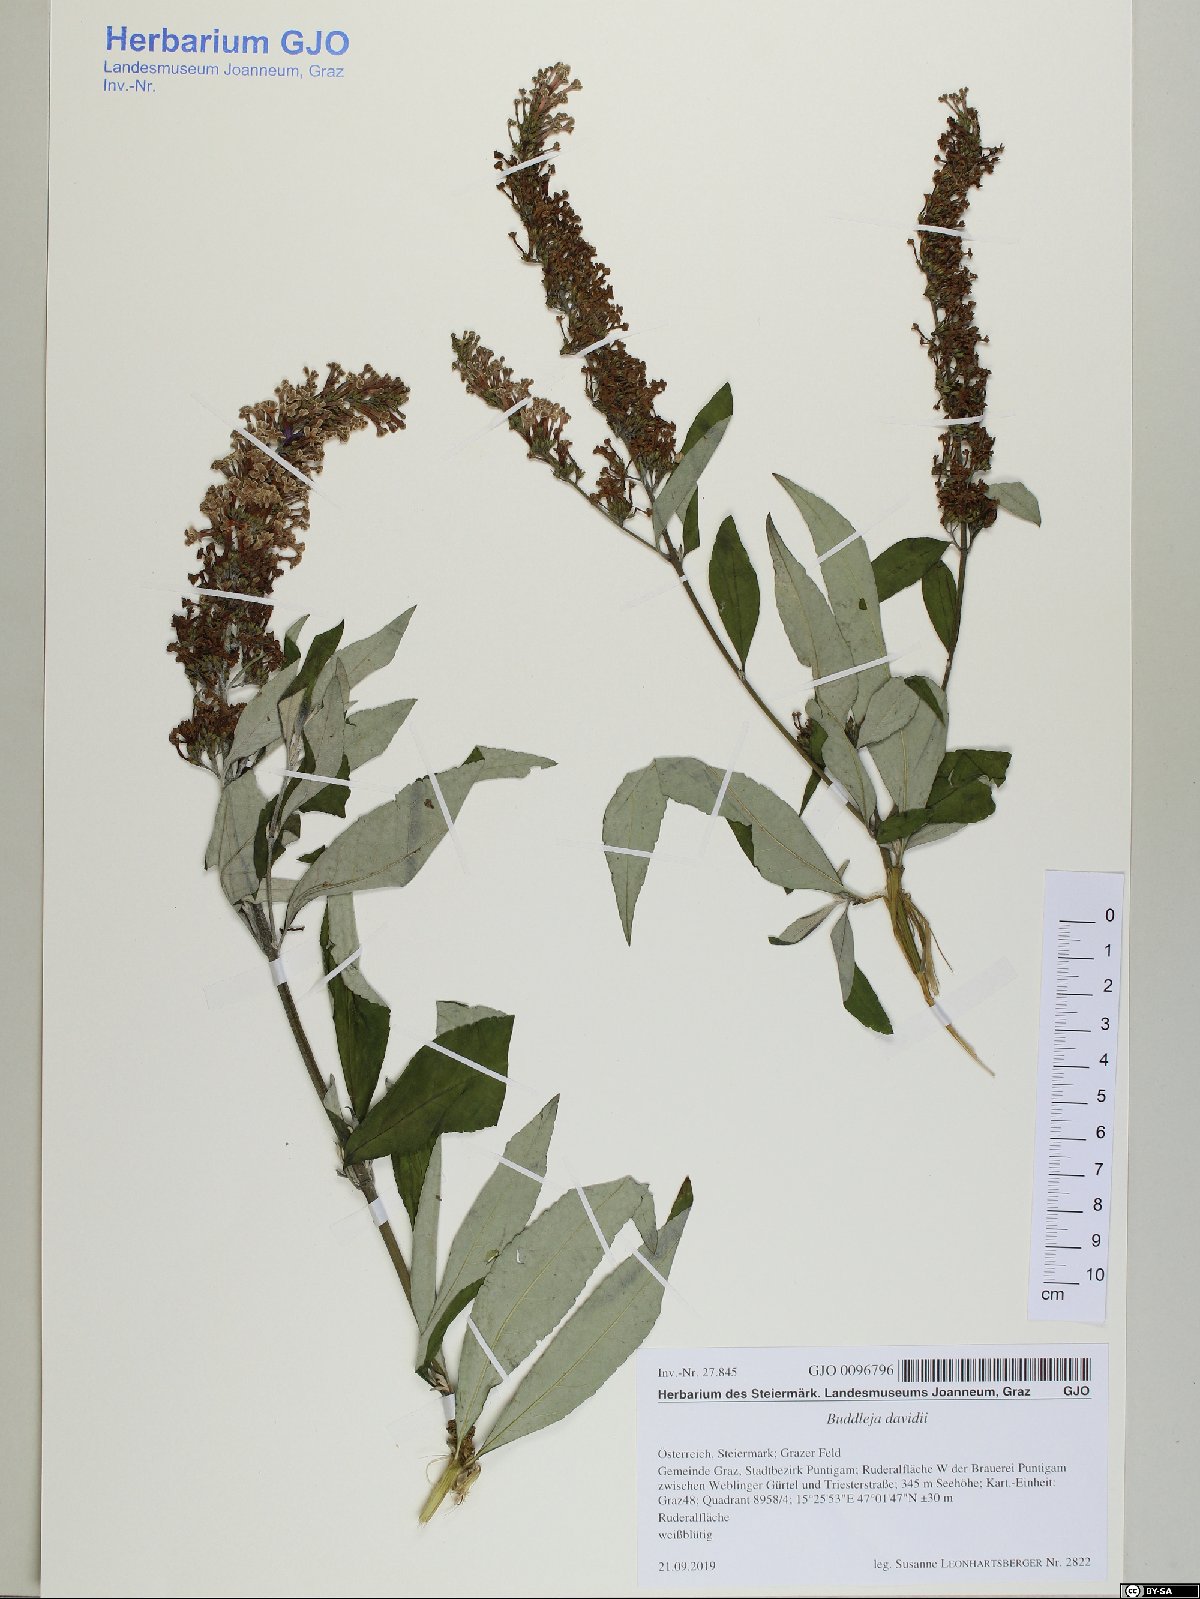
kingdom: Plantae
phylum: Tracheophyta
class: Magnoliopsida
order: Lamiales
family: Scrophulariaceae
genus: Buddleja
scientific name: Buddleja davidii
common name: Butterfly-bush
